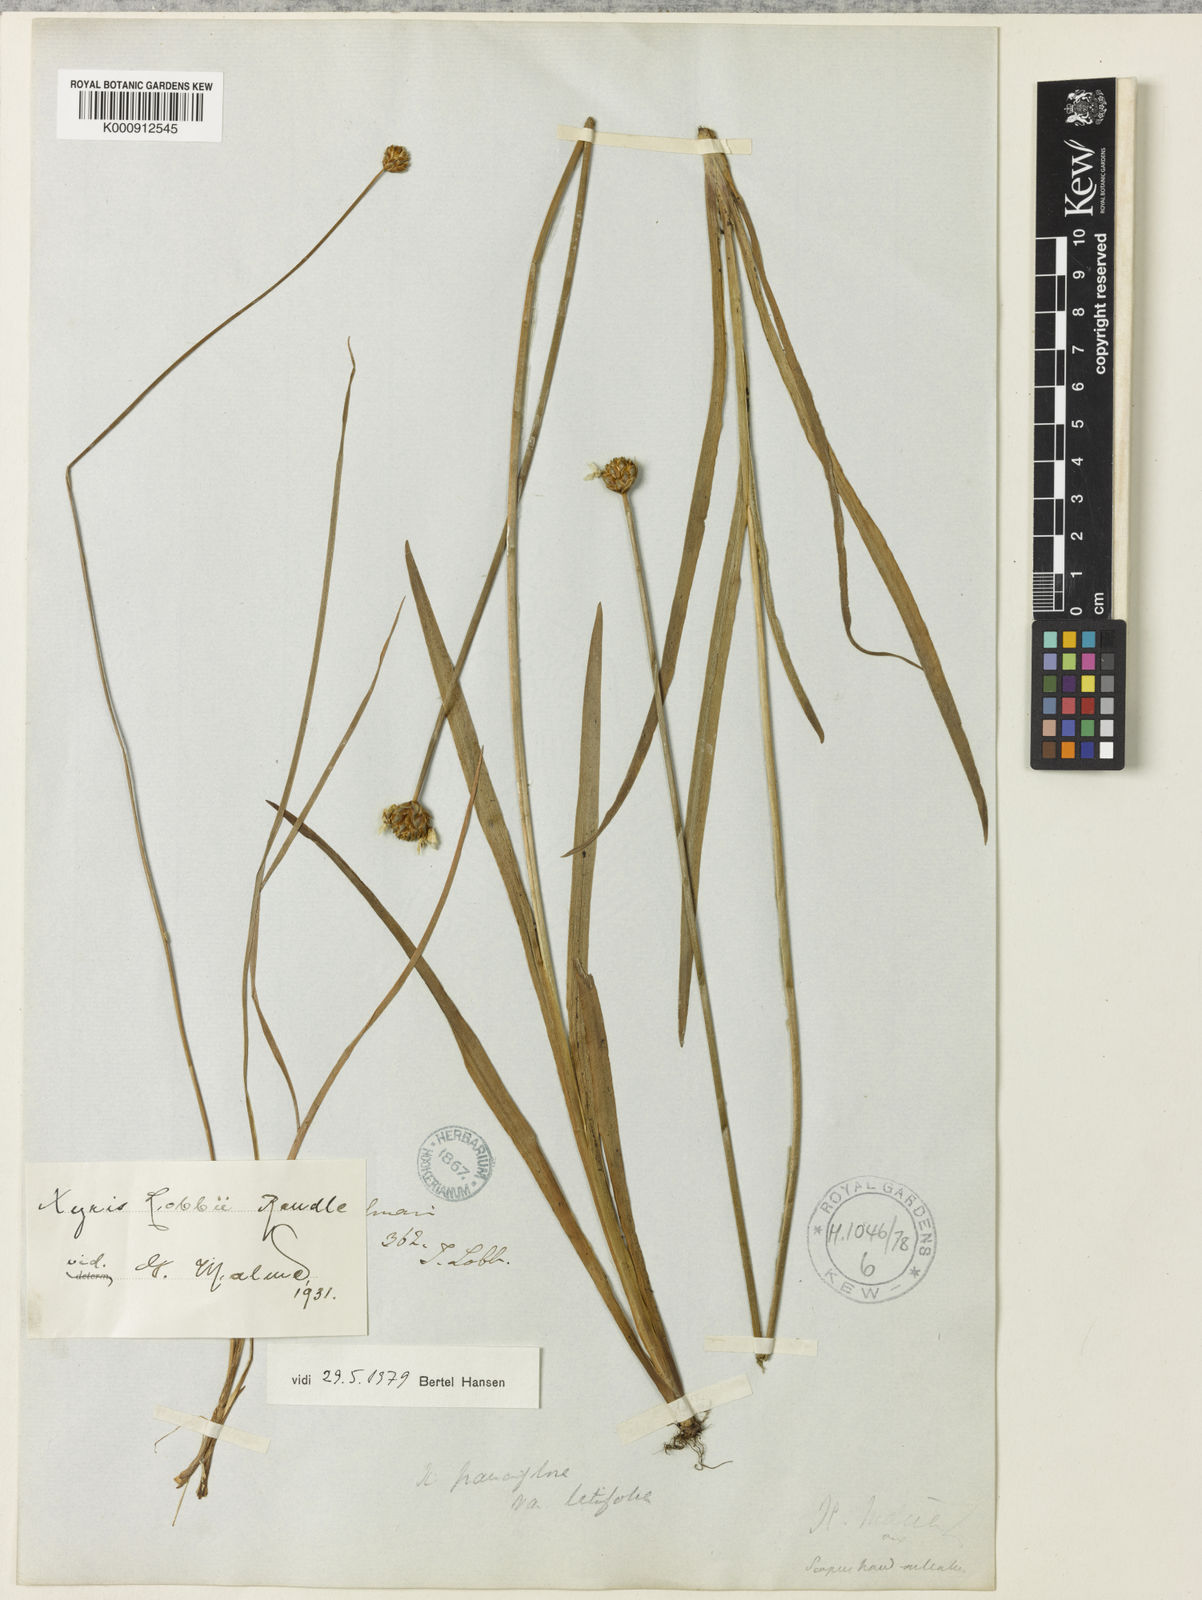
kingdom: Plantae
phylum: Tracheophyta
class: Liliopsida
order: Poales
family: Xyridaceae
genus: Xyris
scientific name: Xyris tuberosa
